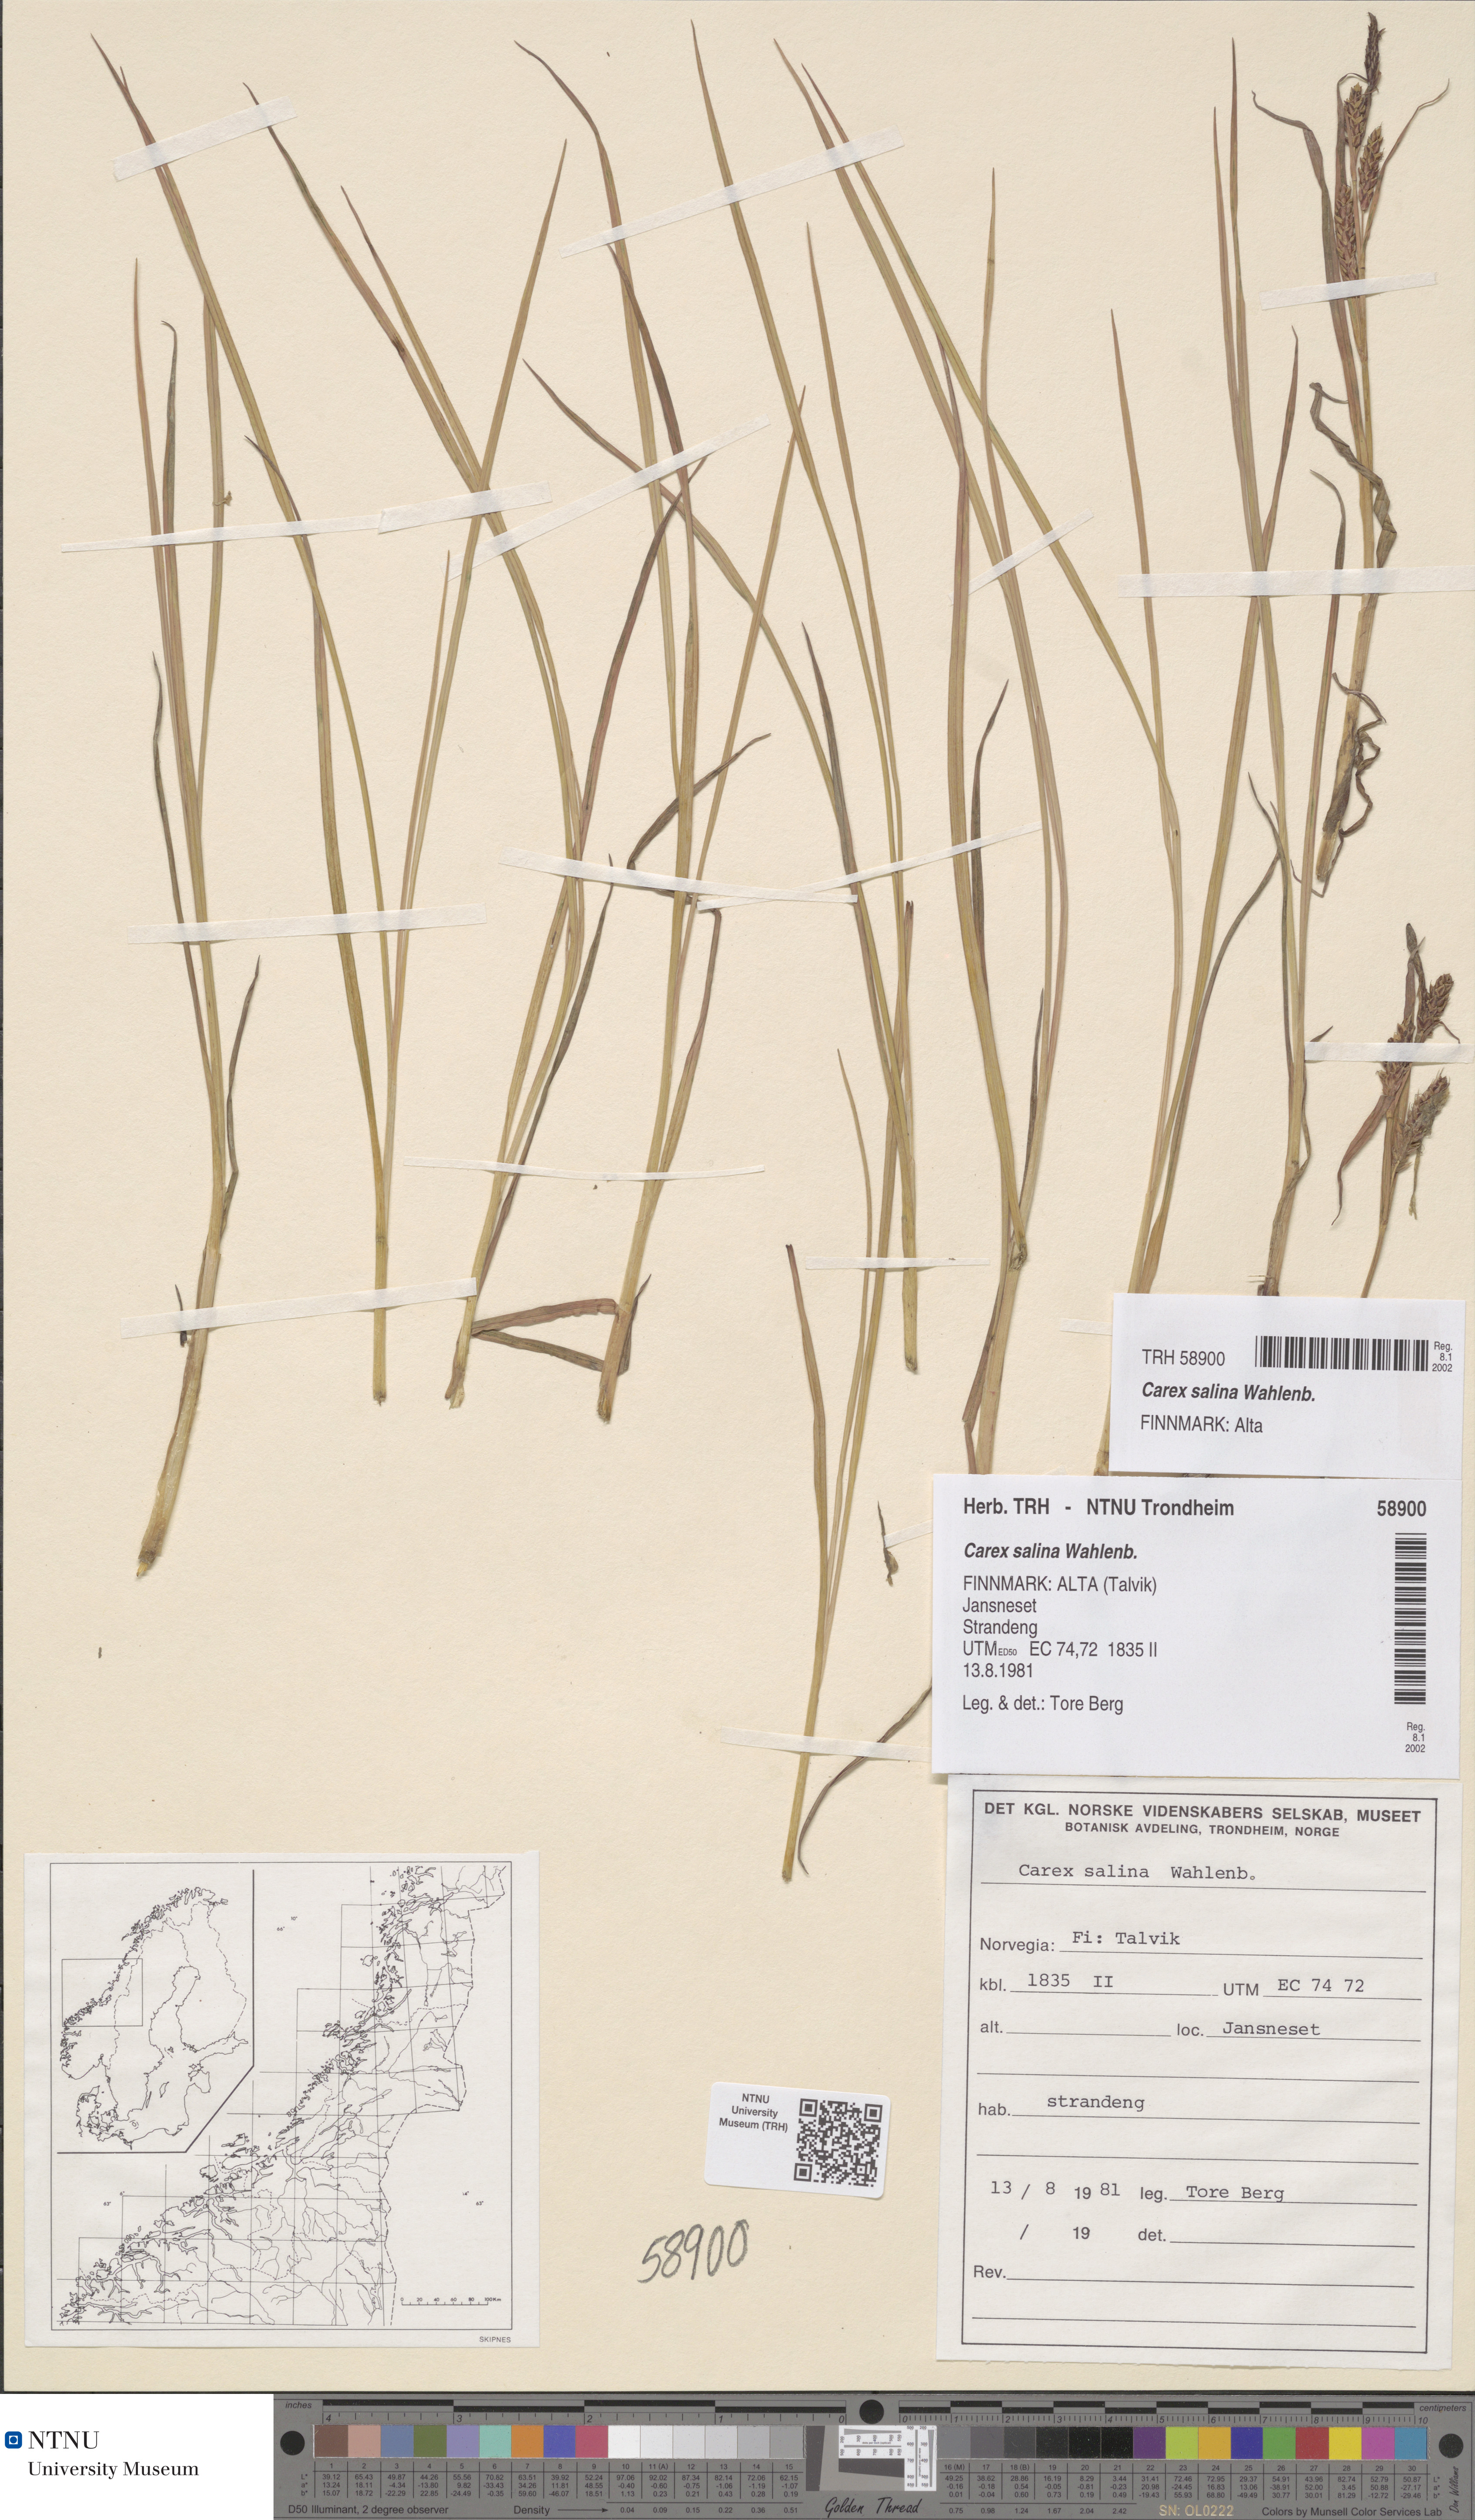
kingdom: Plantae
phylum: Tracheophyta
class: Liliopsida
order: Poales
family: Cyperaceae
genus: Carex
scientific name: Carex salina
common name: Saltmarsh sedge
